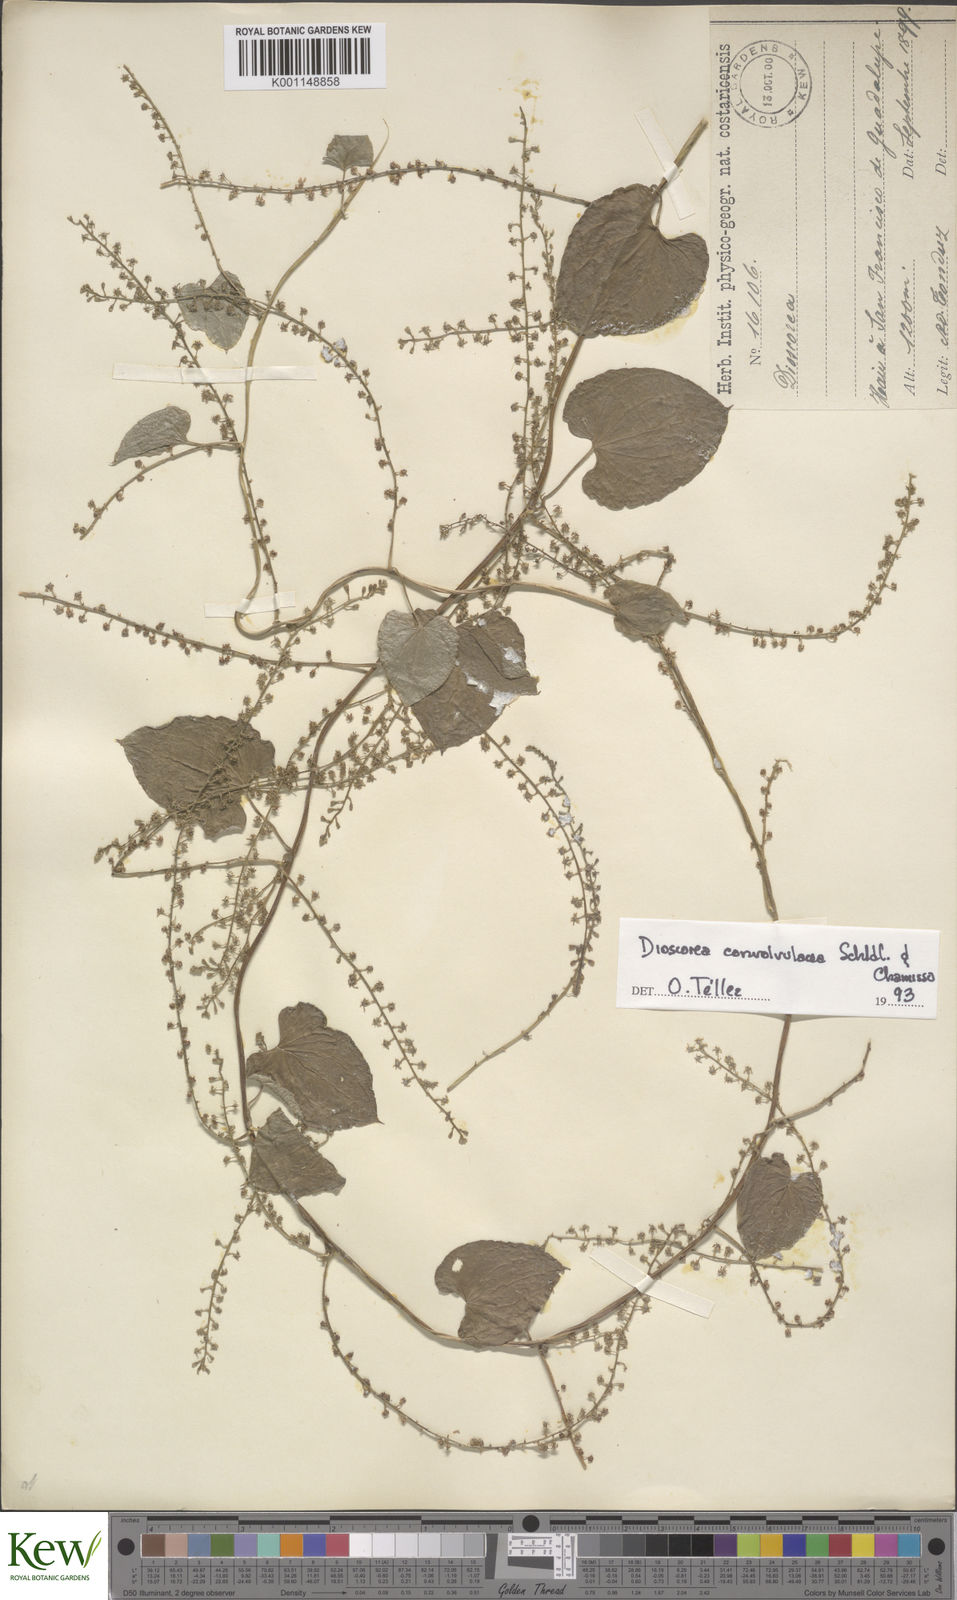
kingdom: Plantae
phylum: Tracheophyta
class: Liliopsida
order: Dioscoreales
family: Dioscoreaceae
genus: Dioscorea
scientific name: Dioscorea convolvulacea
